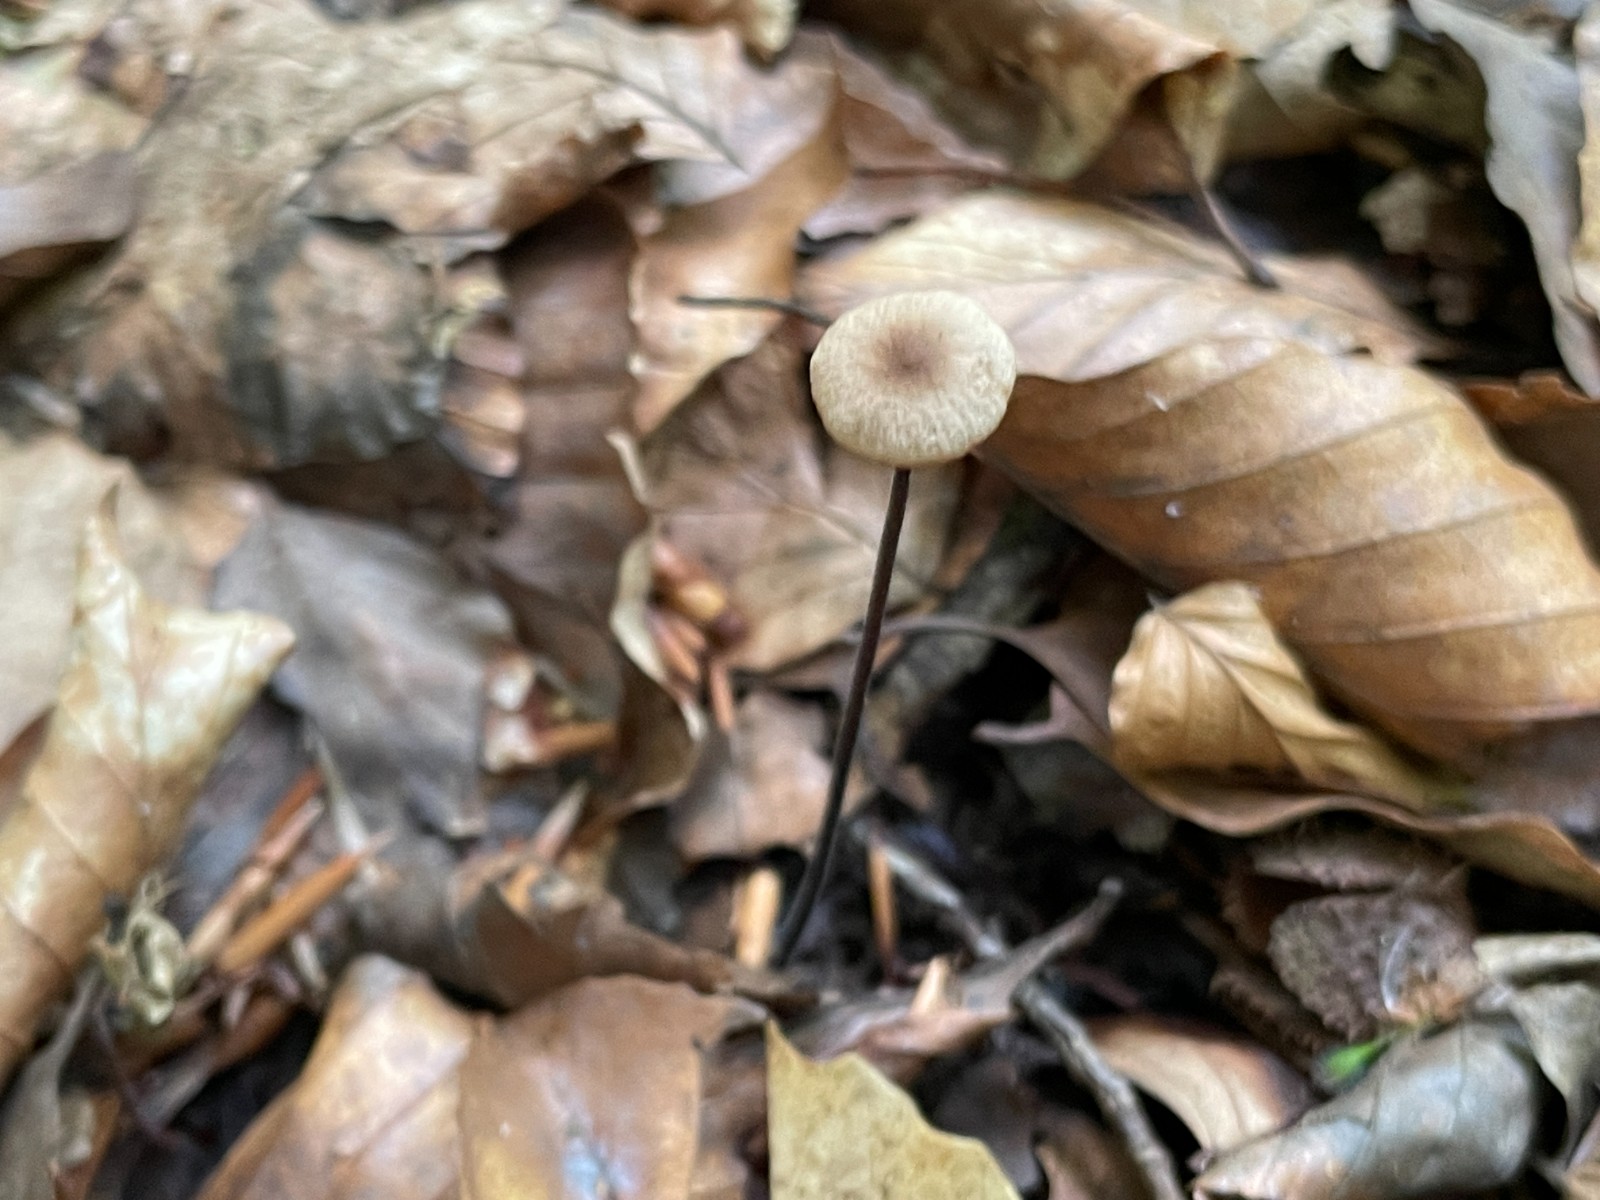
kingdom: Fungi
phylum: Basidiomycota
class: Agaricomycetes
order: Agaricales
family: Omphalotaceae
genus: Mycetinis
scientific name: Mycetinis alliaceus
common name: stor løghat
